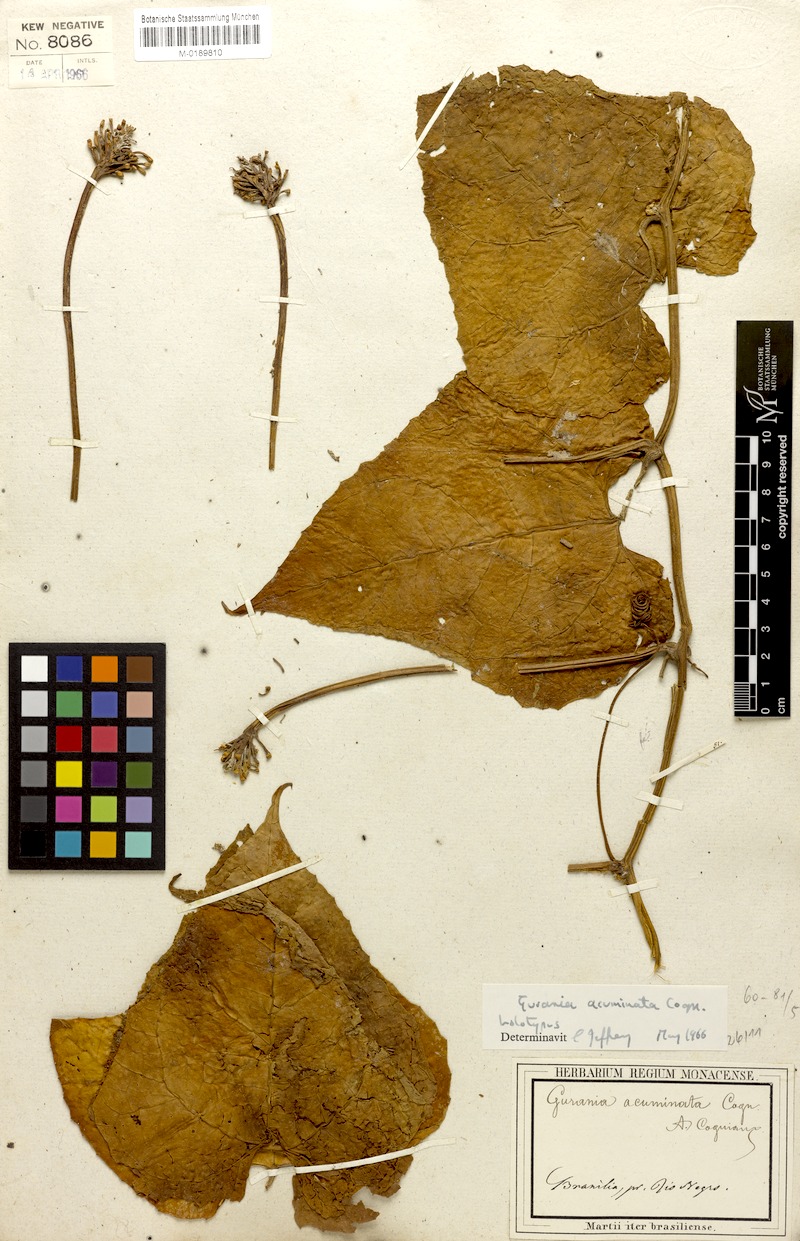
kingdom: Plantae
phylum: Tracheophyta
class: Magnoliopsida
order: Cucurbitales
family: Cucurbitaceae
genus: Gurania
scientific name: Gurania acuminata
